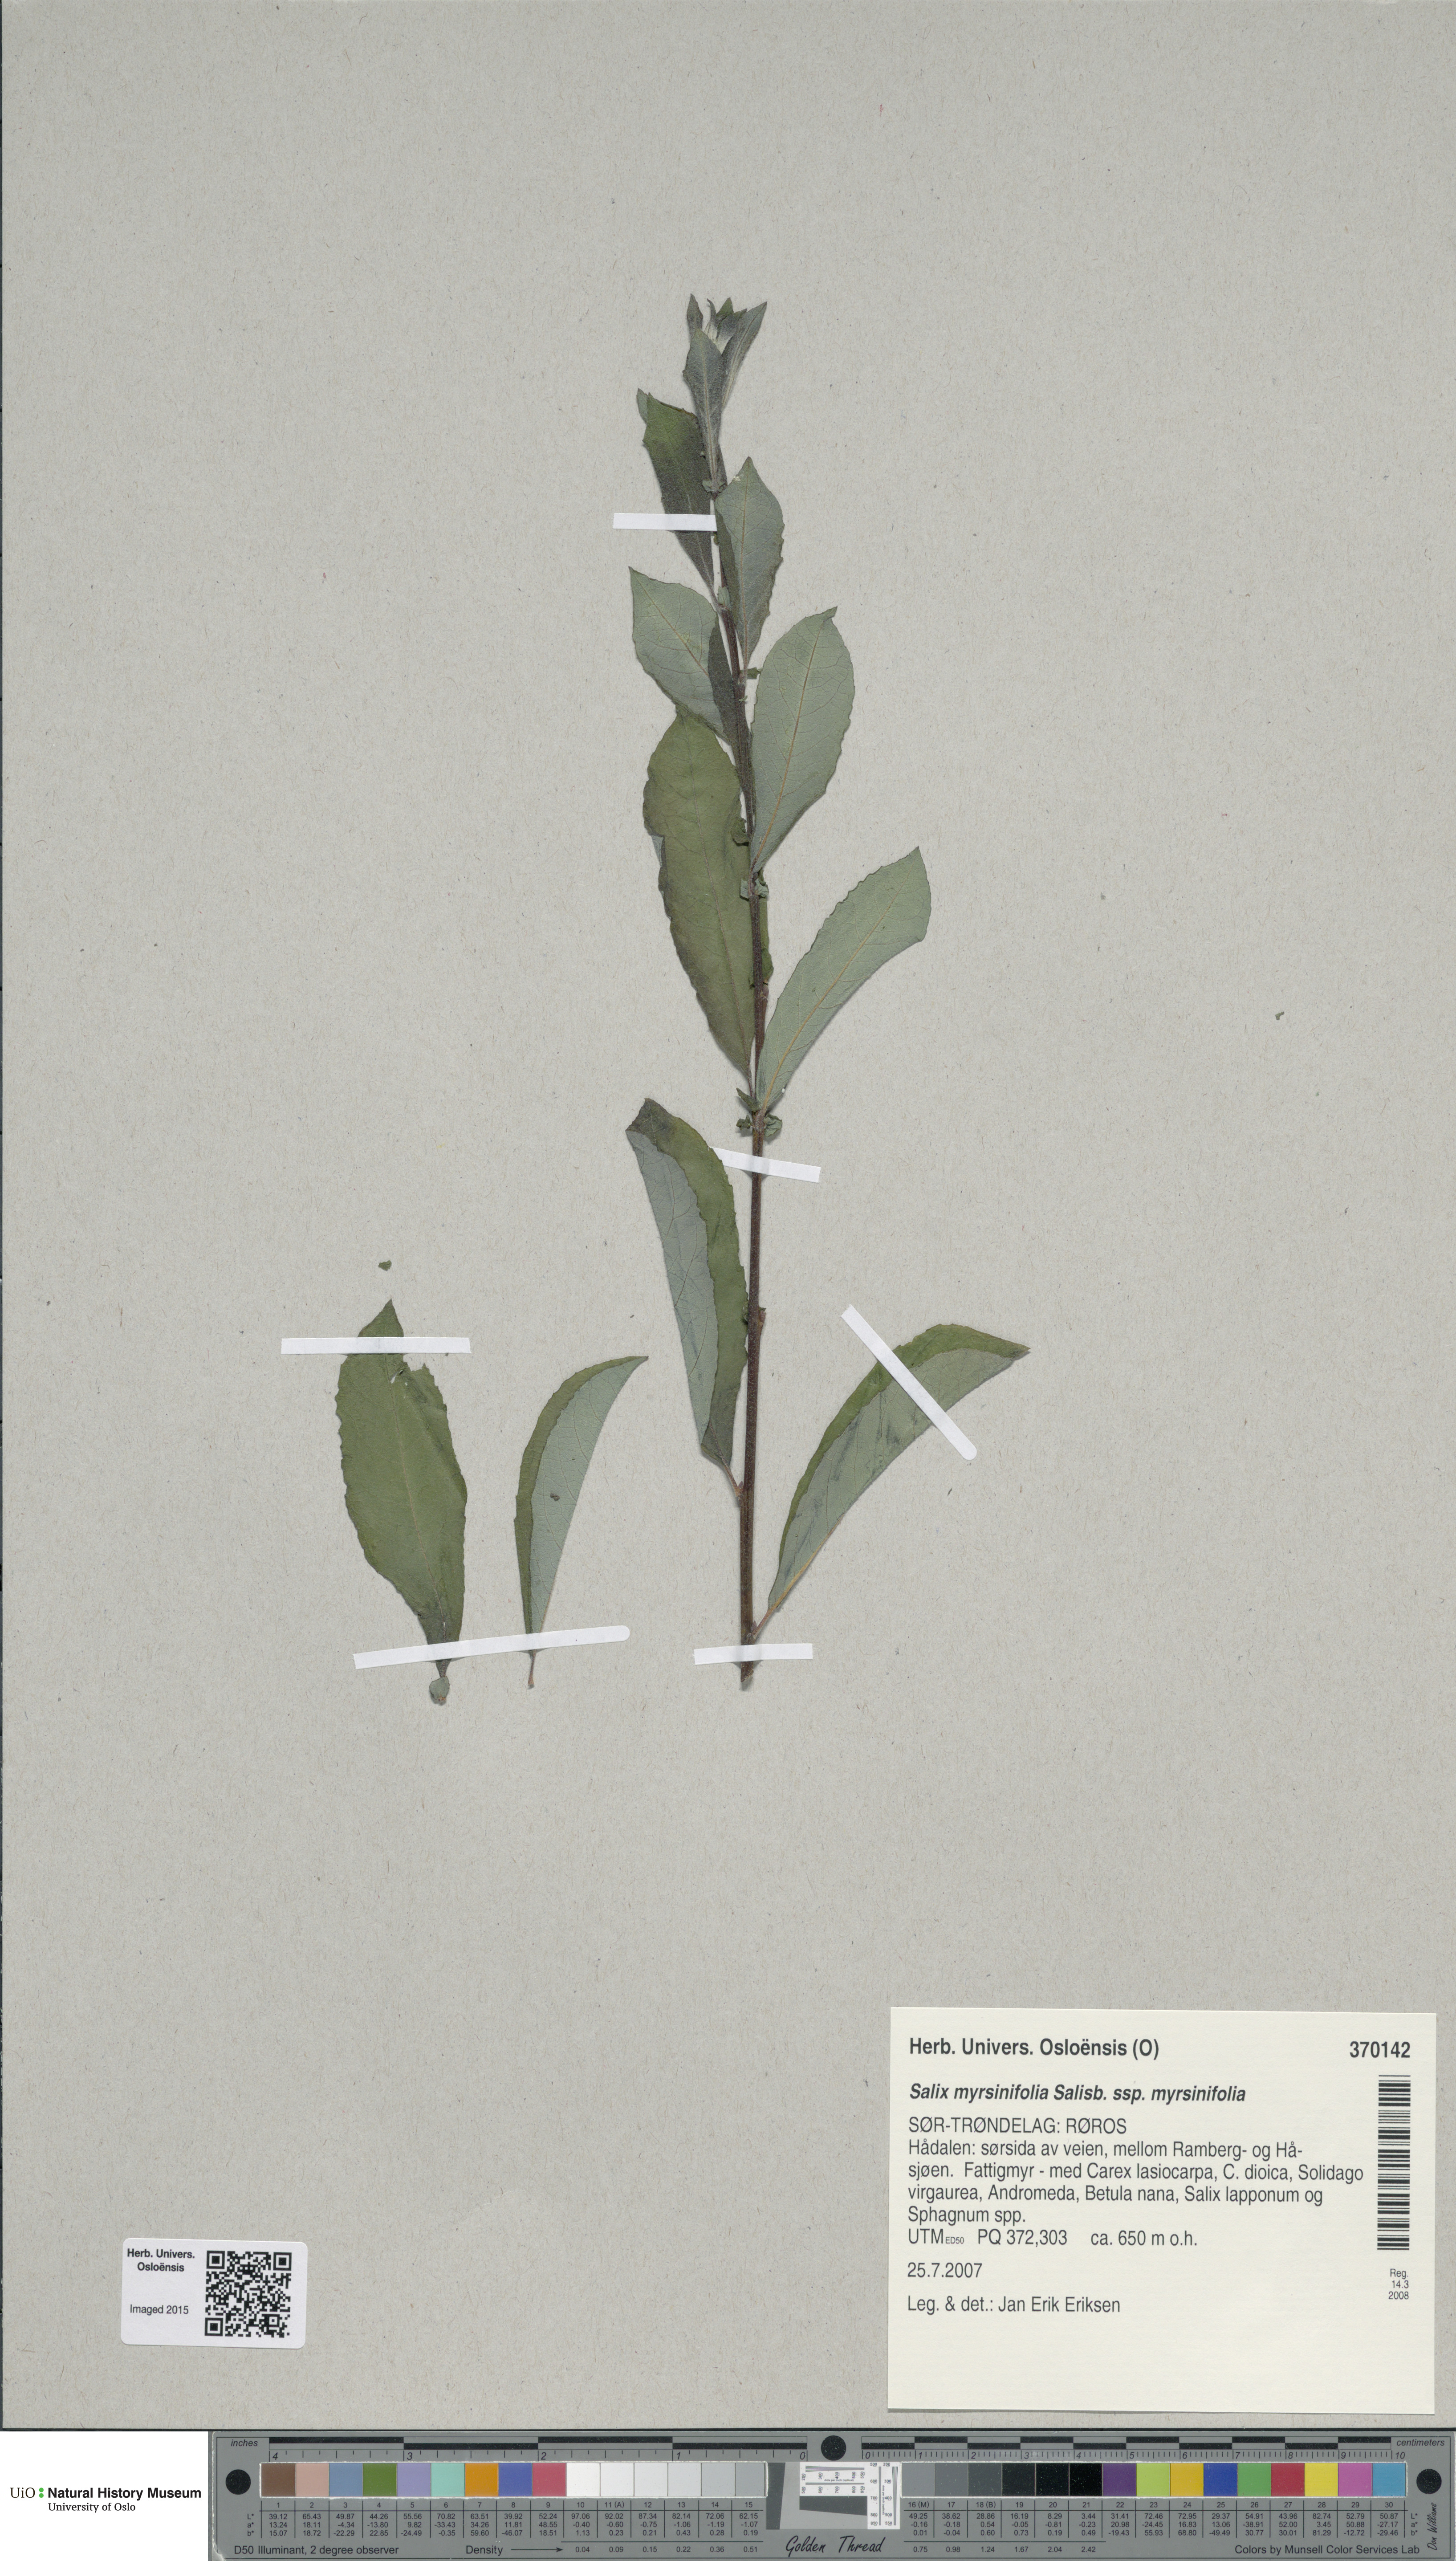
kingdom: Plantae
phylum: Tracheophyta
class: Magnoliopsida
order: Malpighiales
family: Salicaceae
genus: Salix
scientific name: Salix myrsinifolia
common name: Dark-leaved willow
